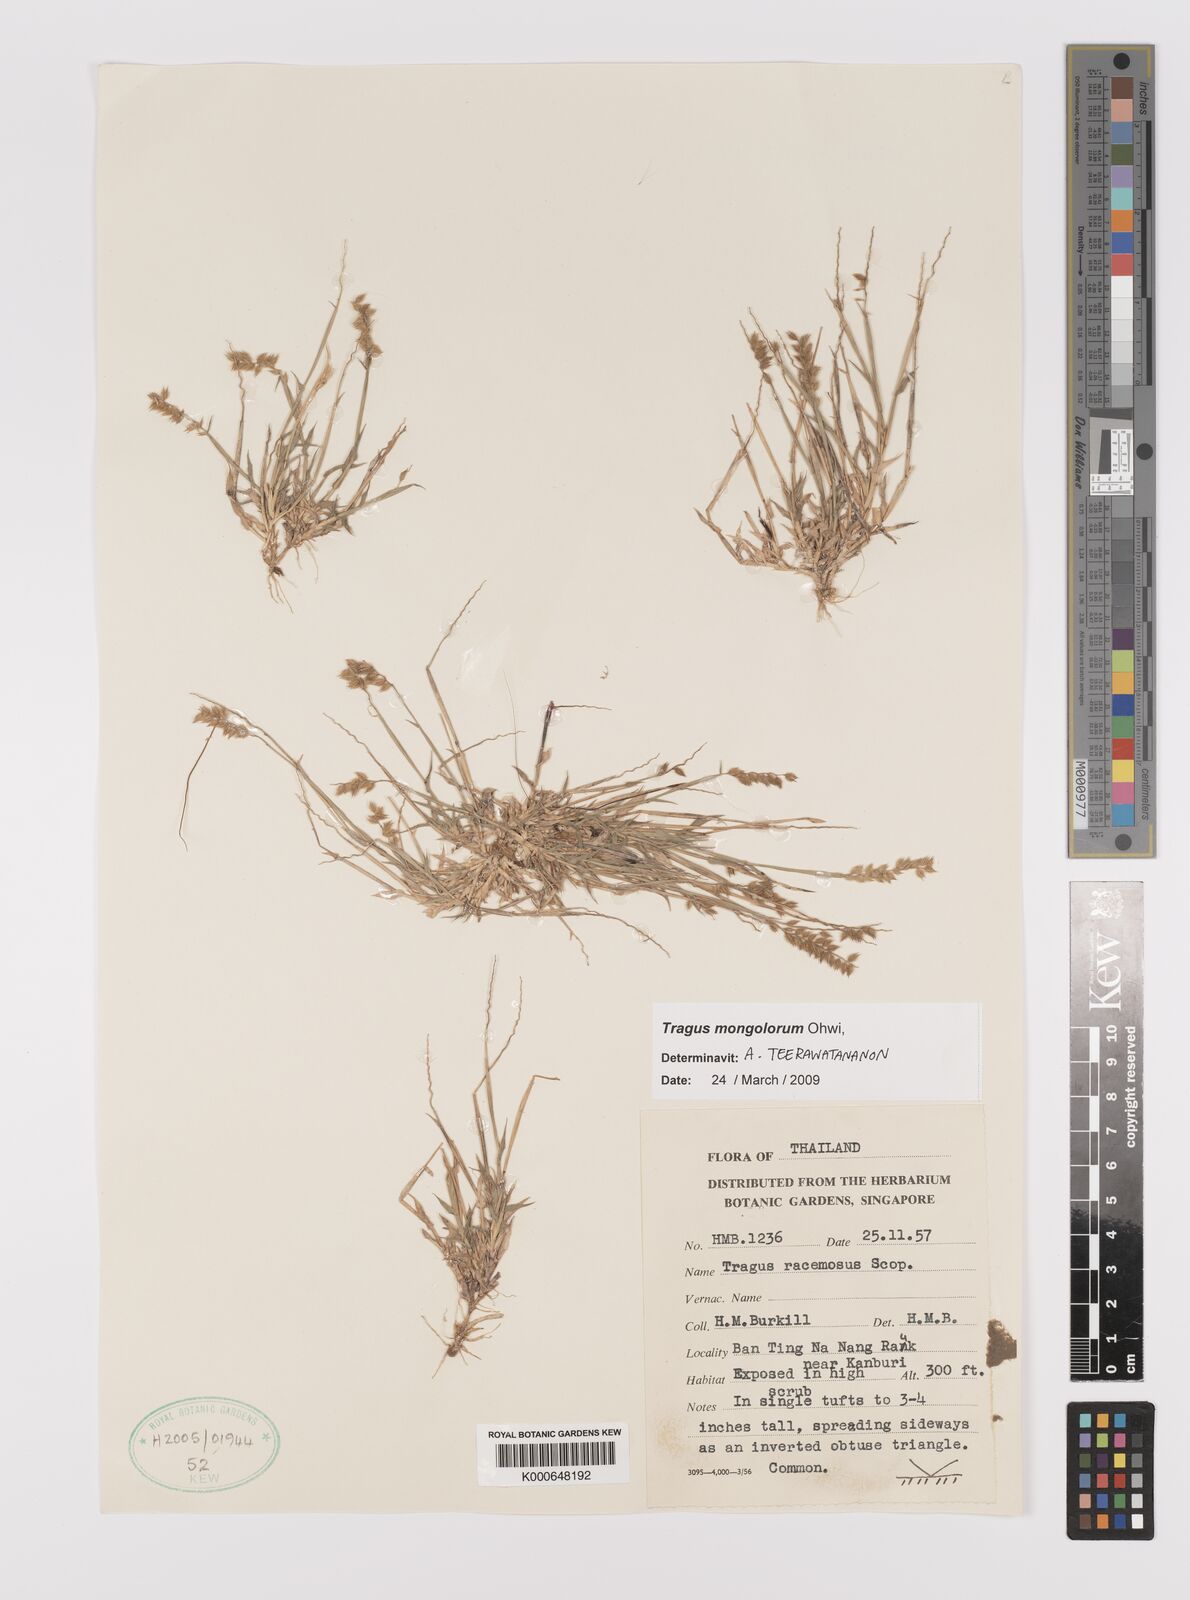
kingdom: Plantae
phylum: Tracheophyta
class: Liliopsida
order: Poales
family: Poaceae
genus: Tragus
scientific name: Tragus mongolorum
